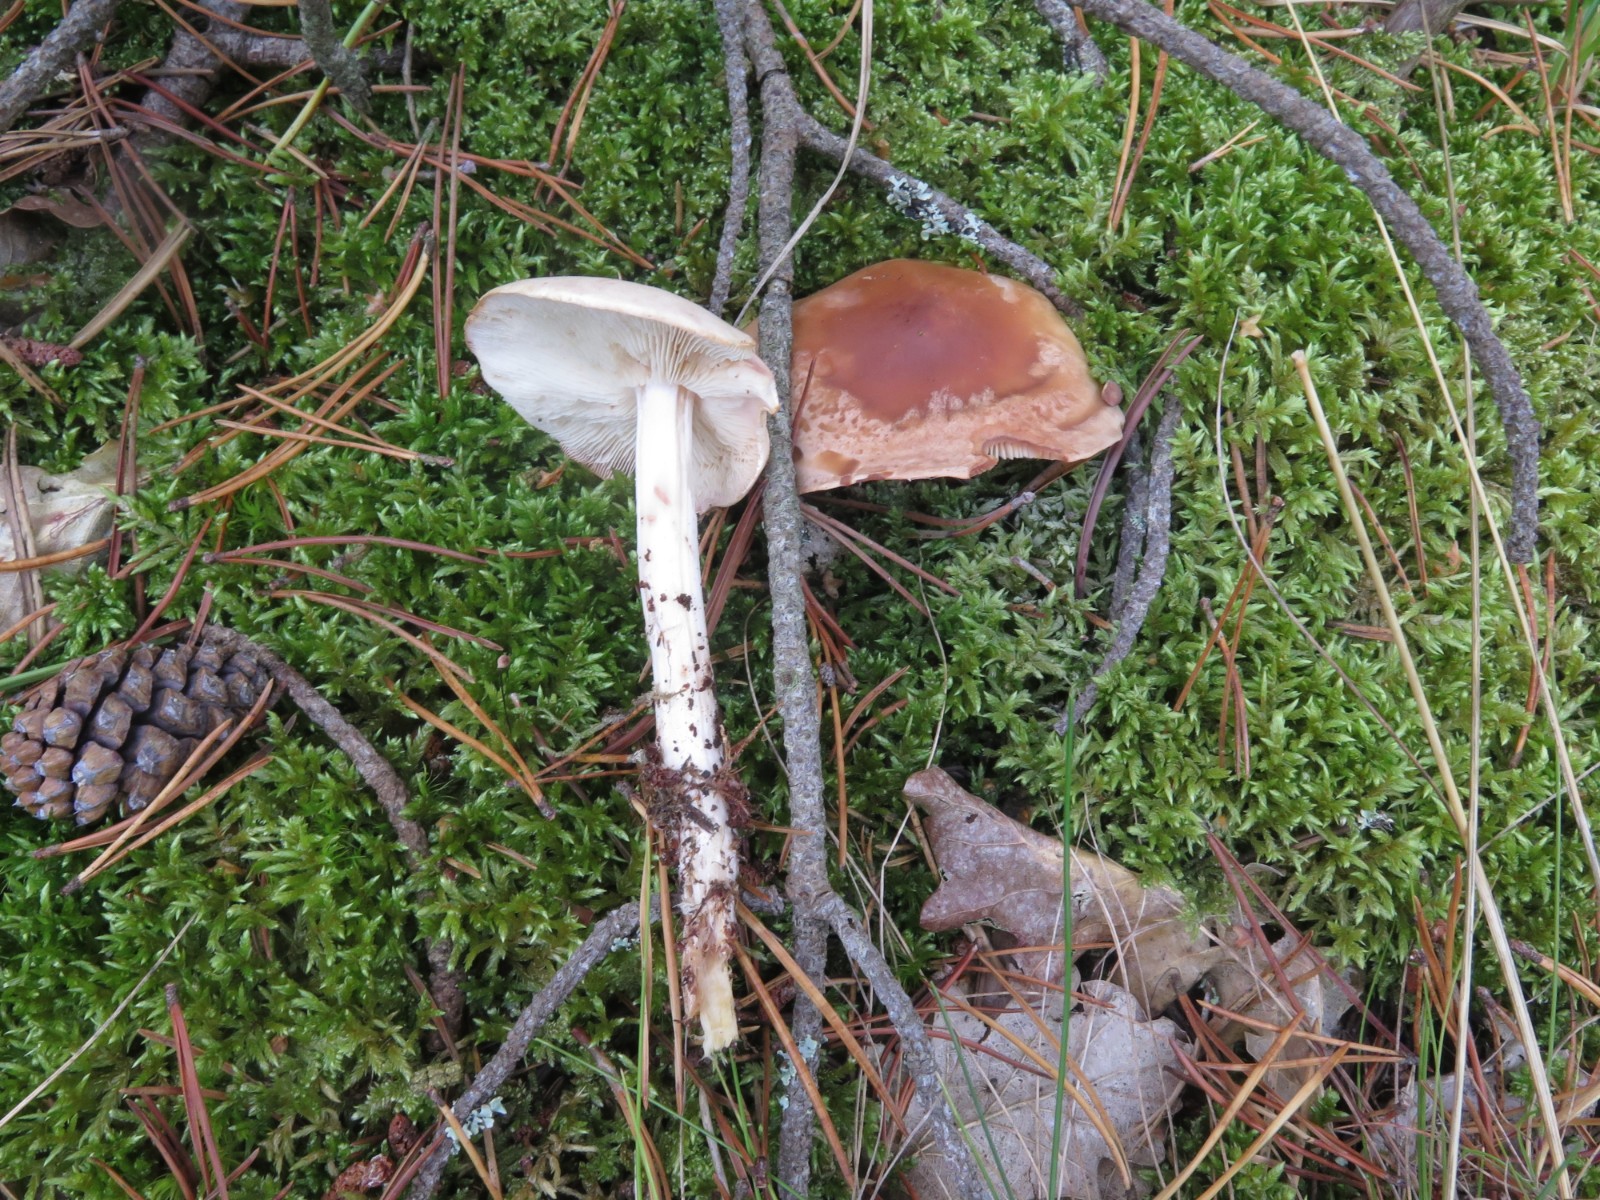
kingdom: Fungi
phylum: Basidiomycota
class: Agaricomycetes
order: Agaricales
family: Omphalotaceae
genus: Rhodocollybia
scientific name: Rhodocollybia maculata
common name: plettet fladhat
